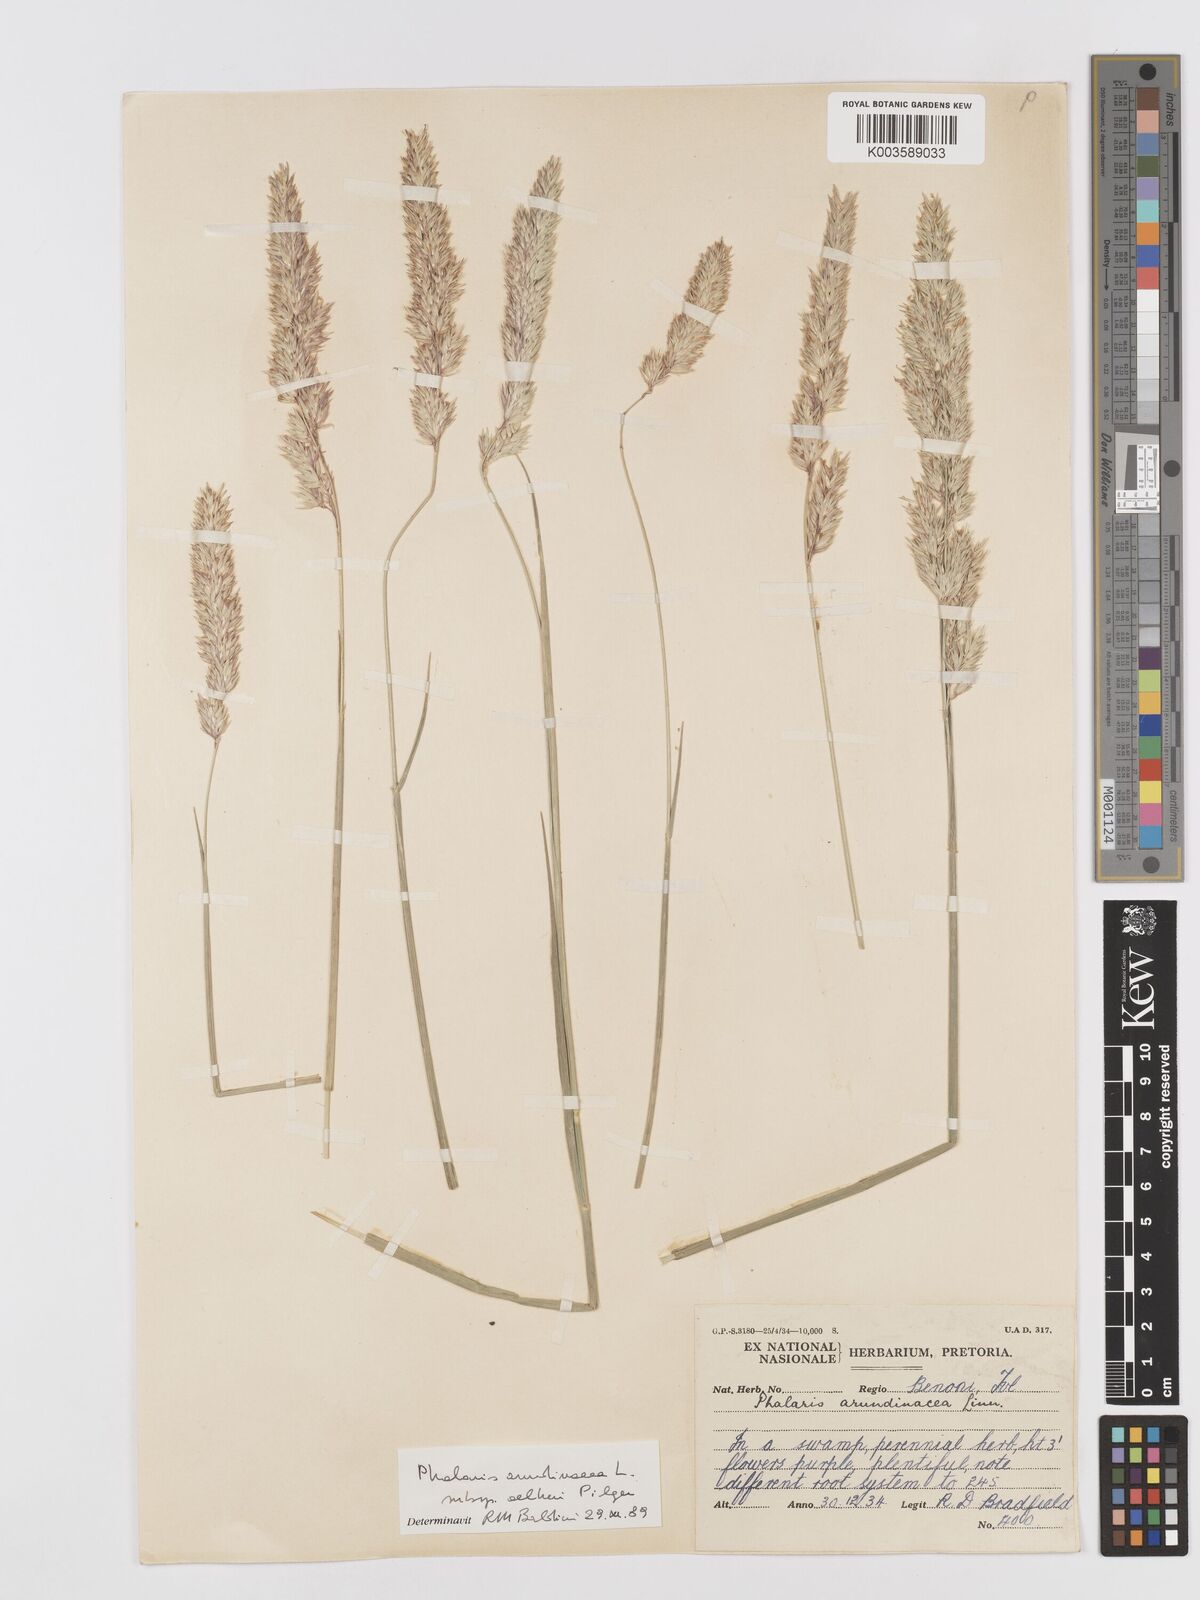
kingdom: Plantae
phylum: Tracheophyta
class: Liliopsida
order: Poales
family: Poaceae
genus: Phalaris
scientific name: Phalaris arundinacea
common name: Reed canary-grass
